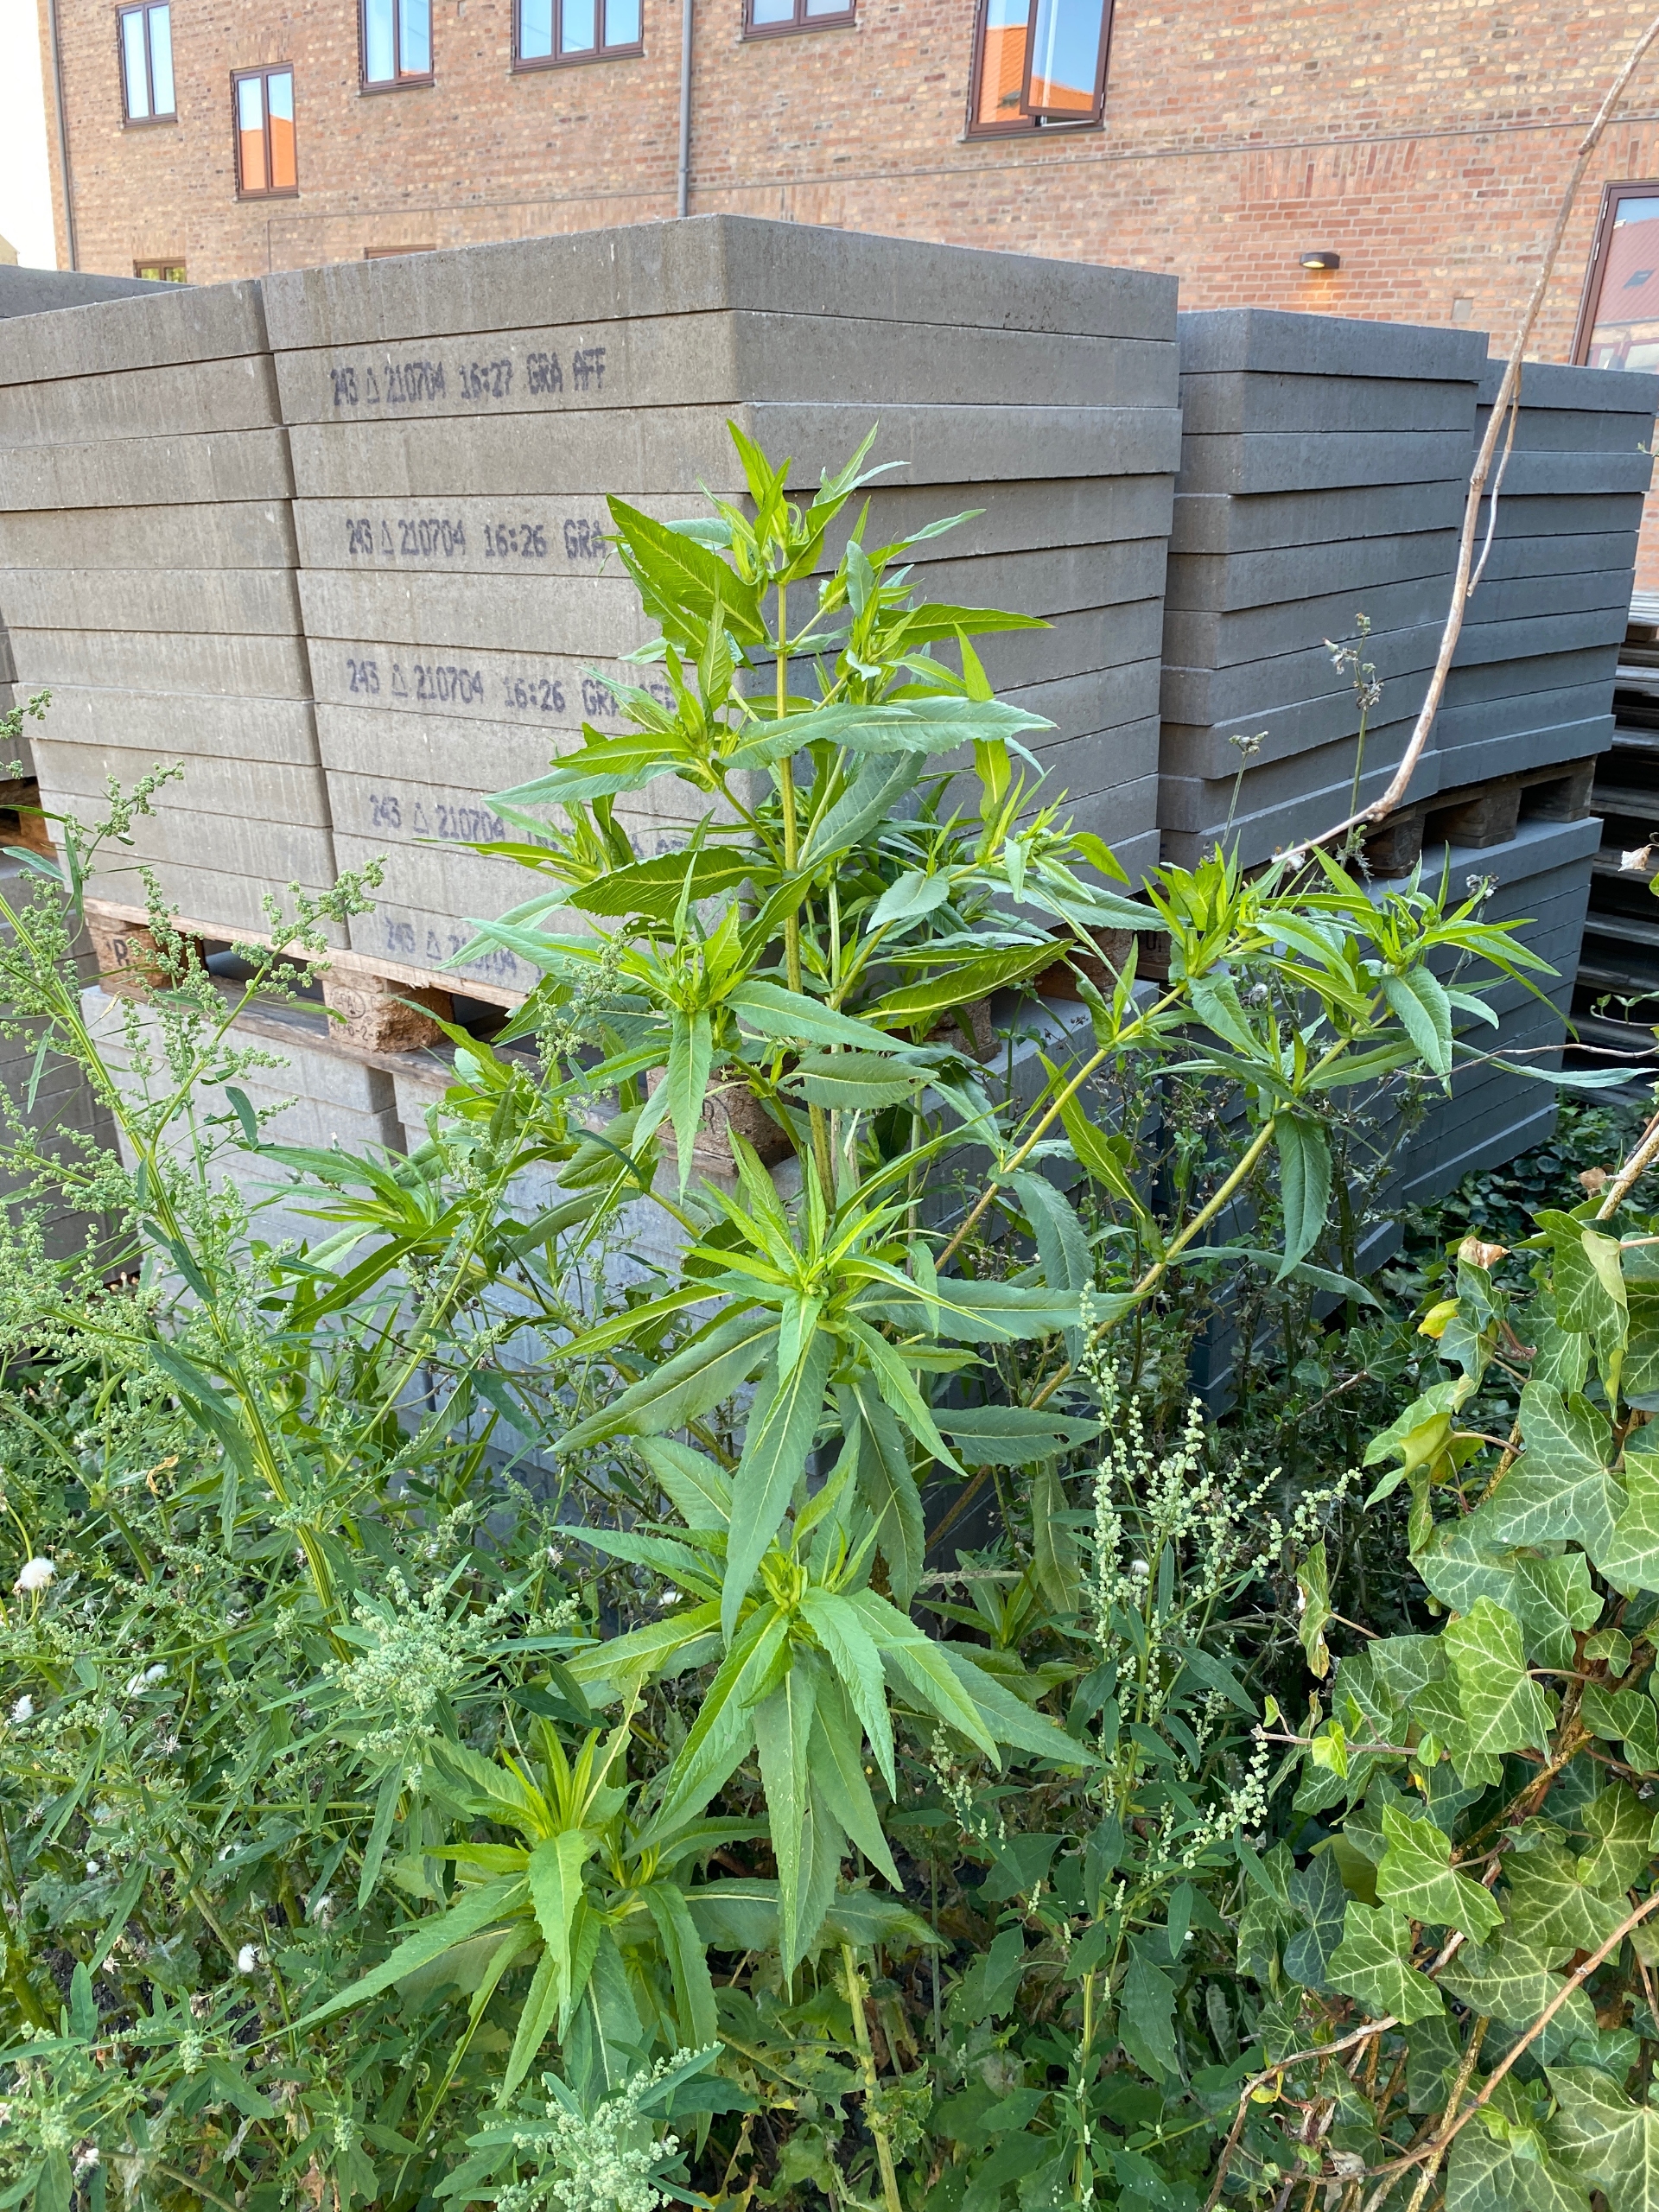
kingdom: Plantae
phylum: Tracheophyta
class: Magnoliopsida
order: Asterales
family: Asteraceae
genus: Guizotia
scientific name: Guizotia abyssinica
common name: Nigerfrø
